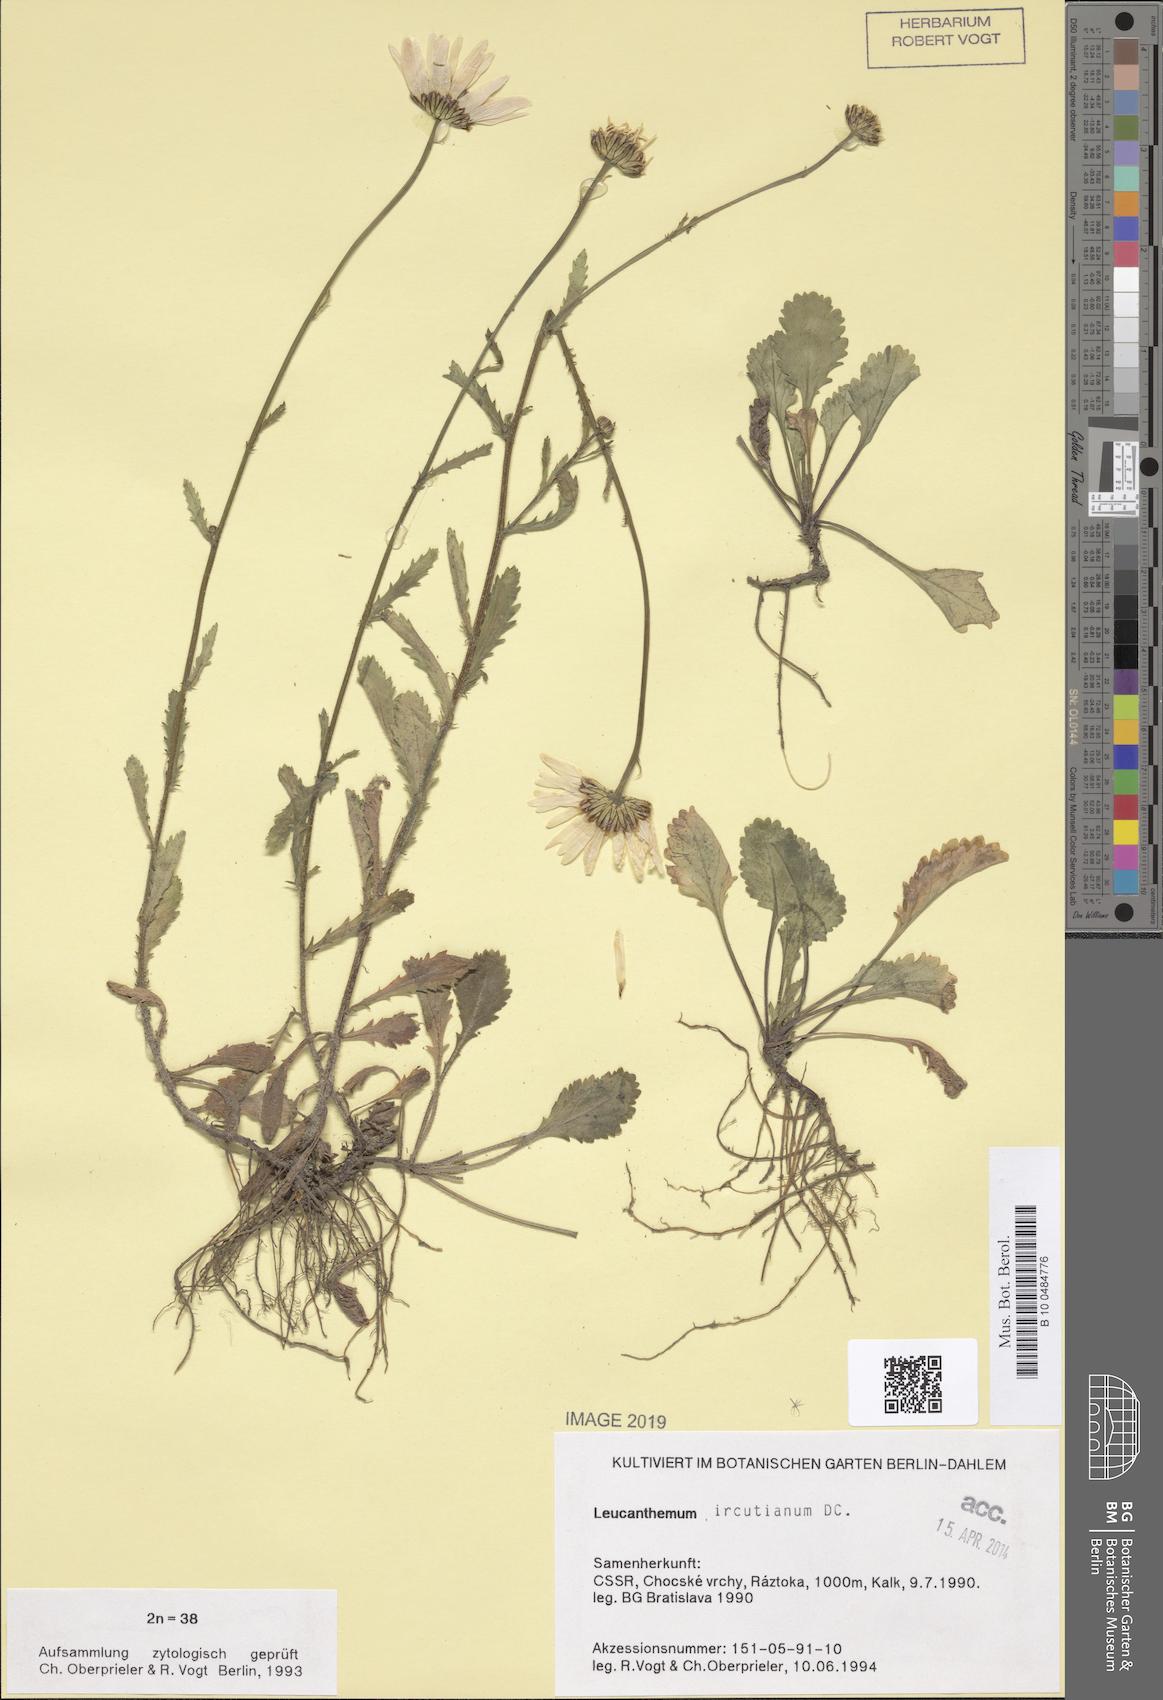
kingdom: Plantae
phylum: Tracheophyta
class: Magnoliopsida
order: Asterales
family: Asteraceae
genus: Leucanthemum
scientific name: Leucanthemum ircutianum
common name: Daisy
